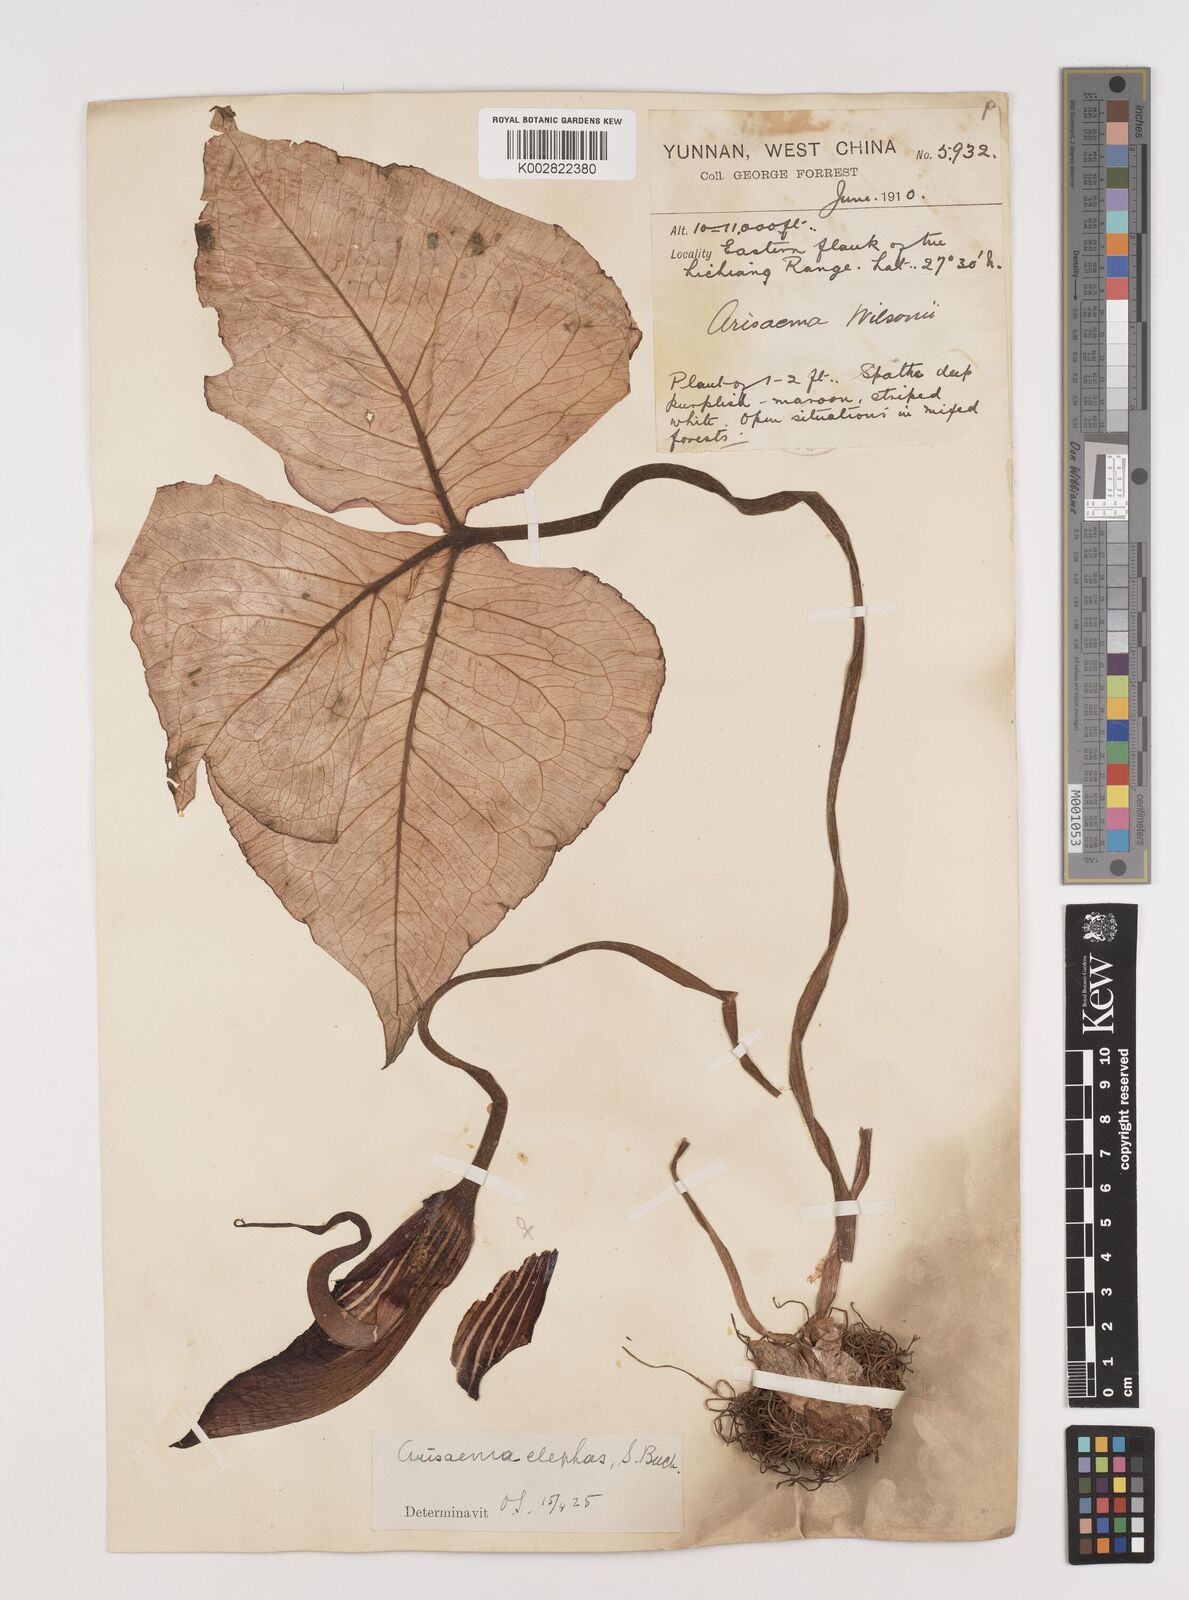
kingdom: Plantae
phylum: Tracheophyta
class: Liliopsida
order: Alismatales
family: Araceae
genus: Arisaema
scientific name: Arisaema elephas
